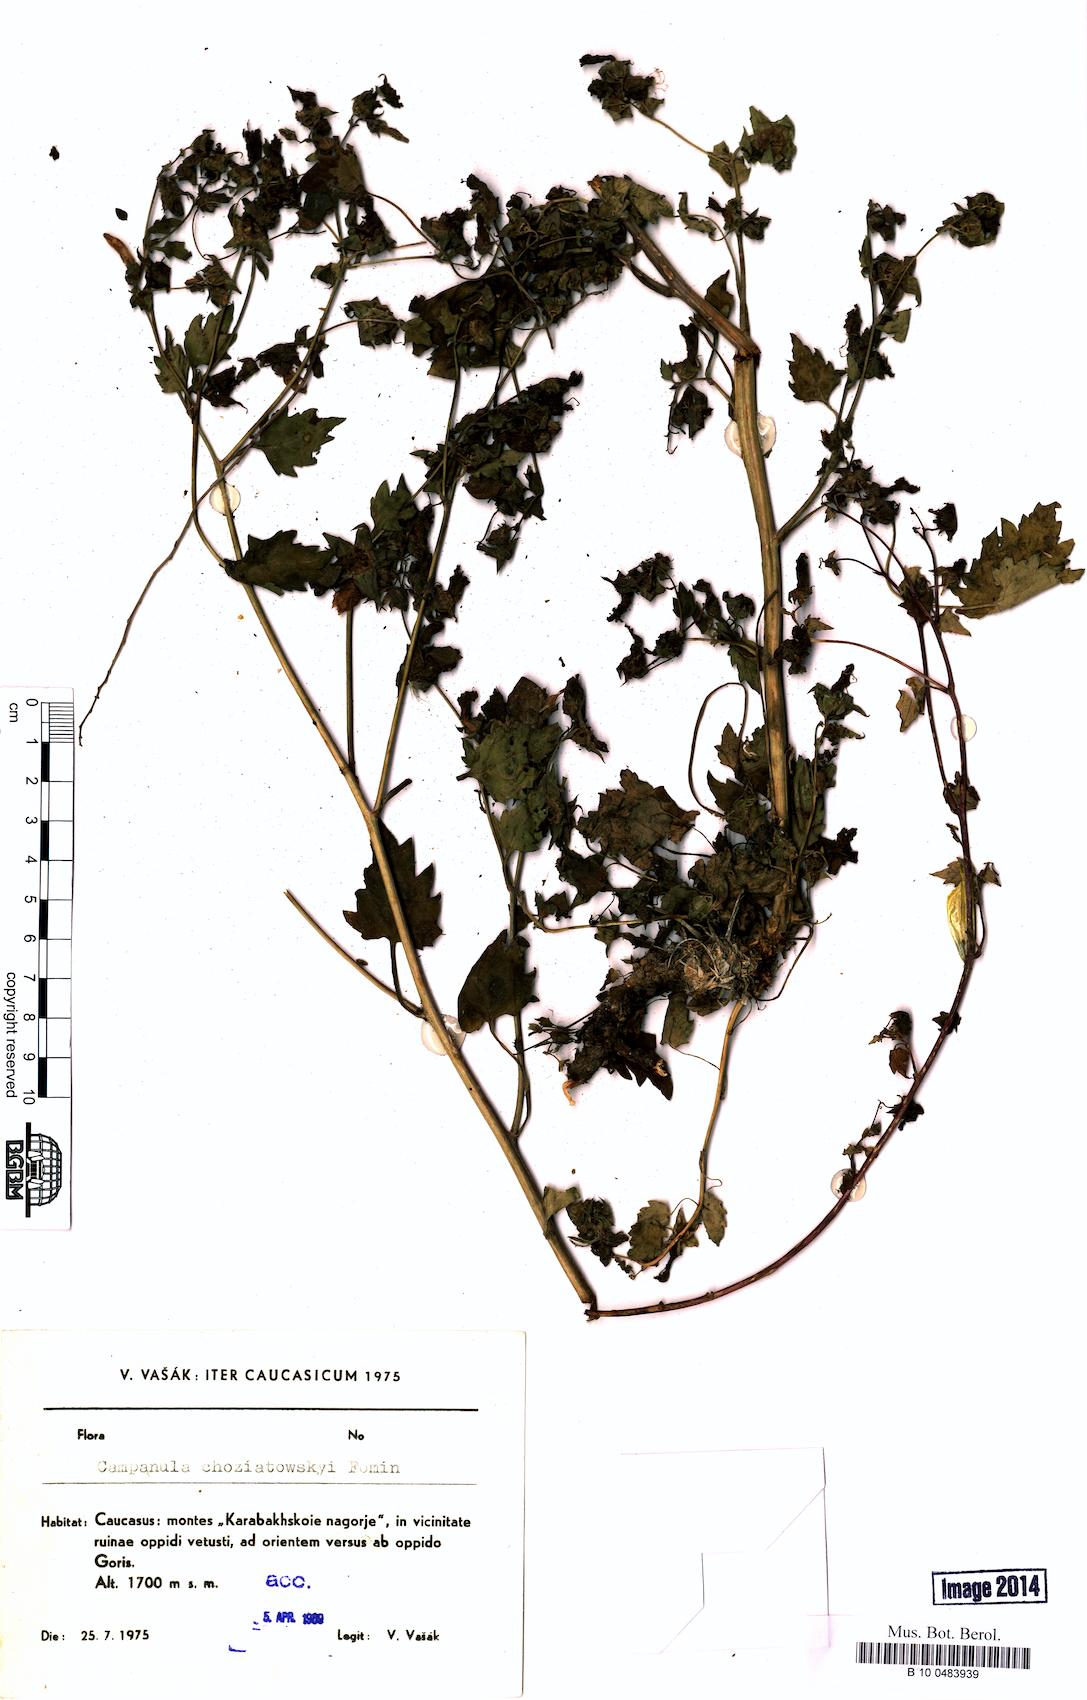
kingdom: Plantae
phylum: Tracheophyta
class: Magnoliopsida
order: Asterales
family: Campanulaceae
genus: Campanula
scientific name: Campanula armena
